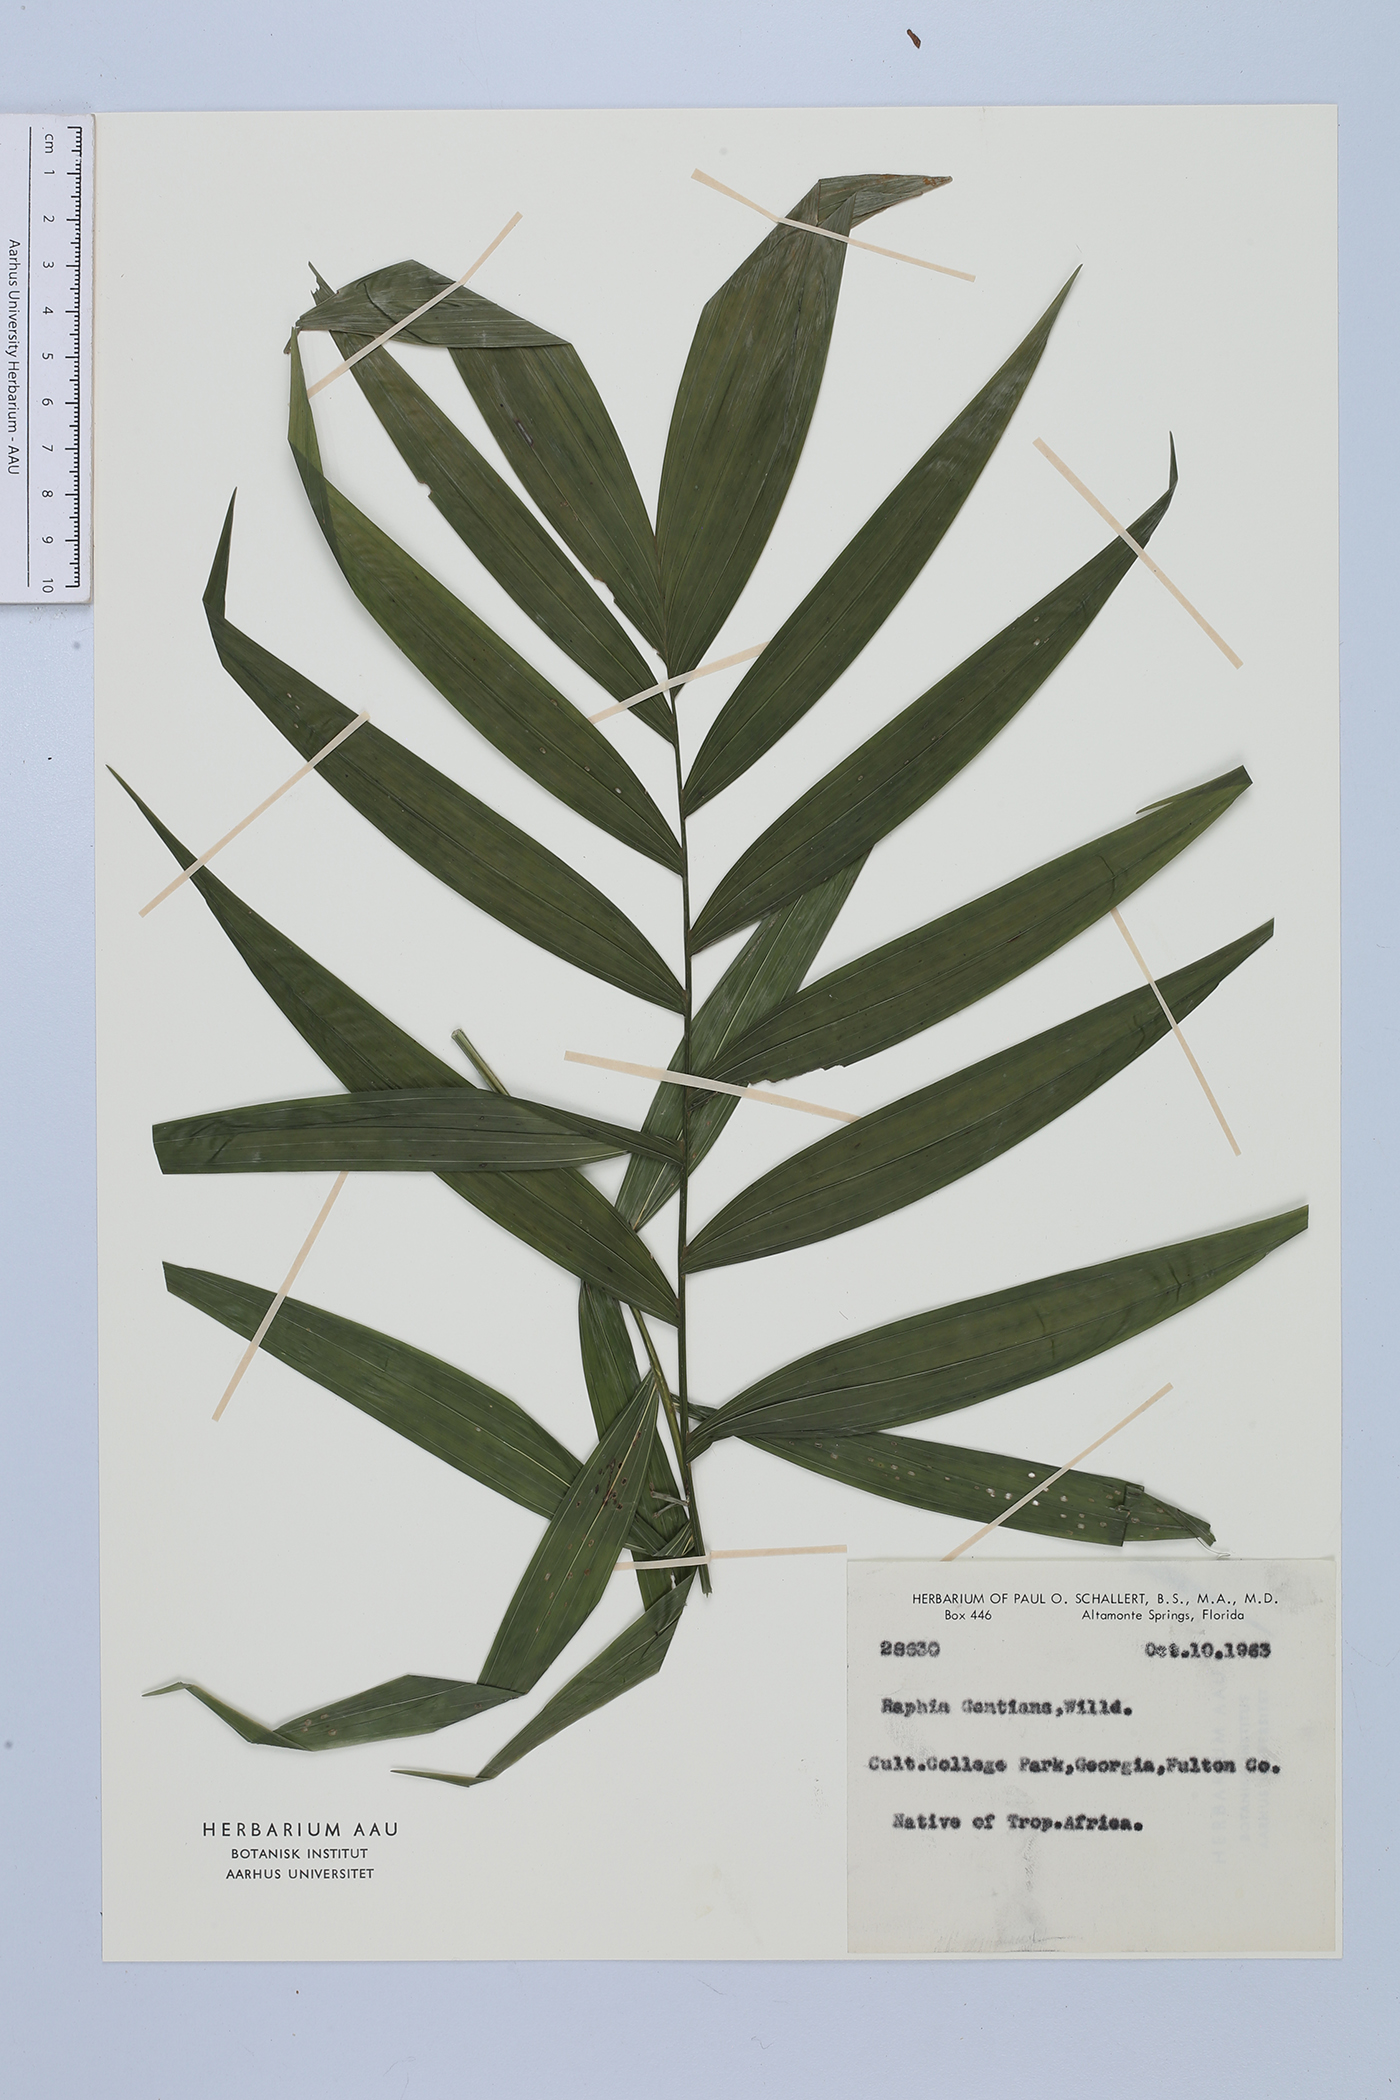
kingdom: Plantae
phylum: Tracheophyta
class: Liliopsida
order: Arecales
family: Arecaceae
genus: Raphia
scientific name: Raphia gentiliana
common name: Raphia palm
